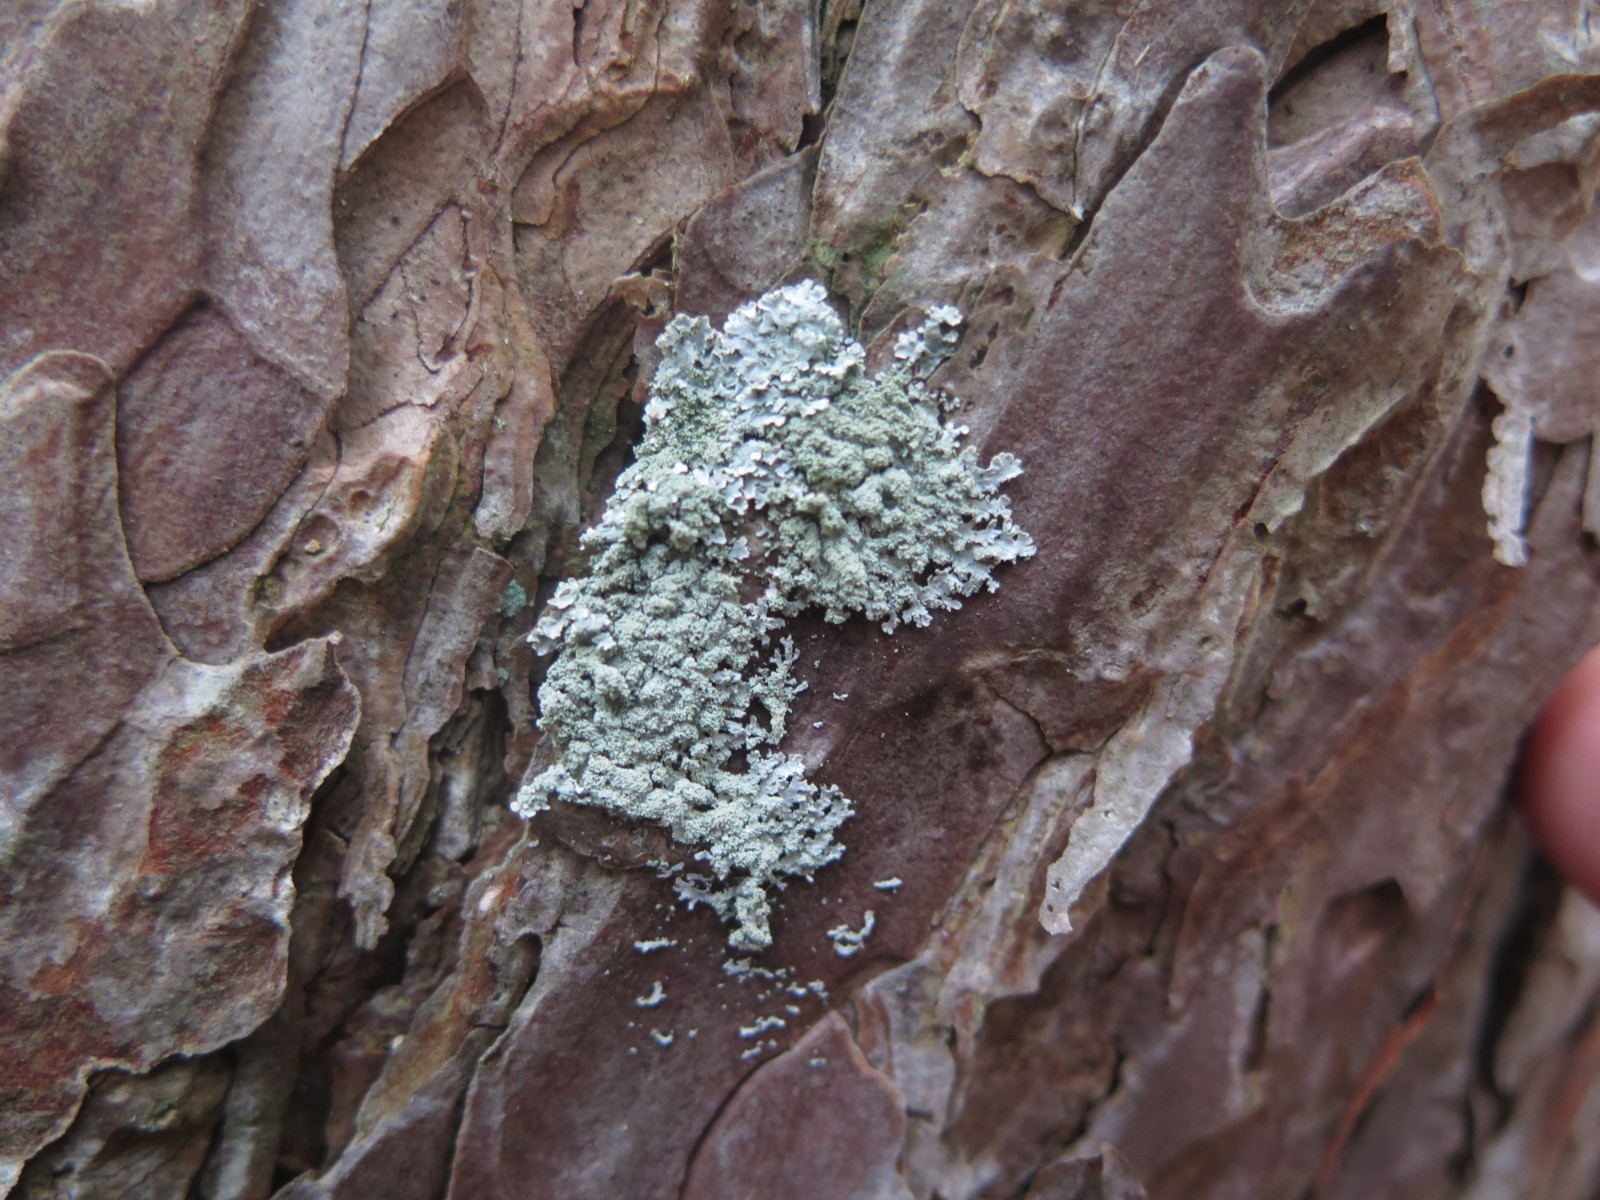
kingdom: Fungi
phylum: Ascomycota
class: Lecanoromycetes
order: Lecanorales
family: Parmeliaceae
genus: Imshaugia
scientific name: Imshaugia aleurites
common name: kliddet stolpelav
